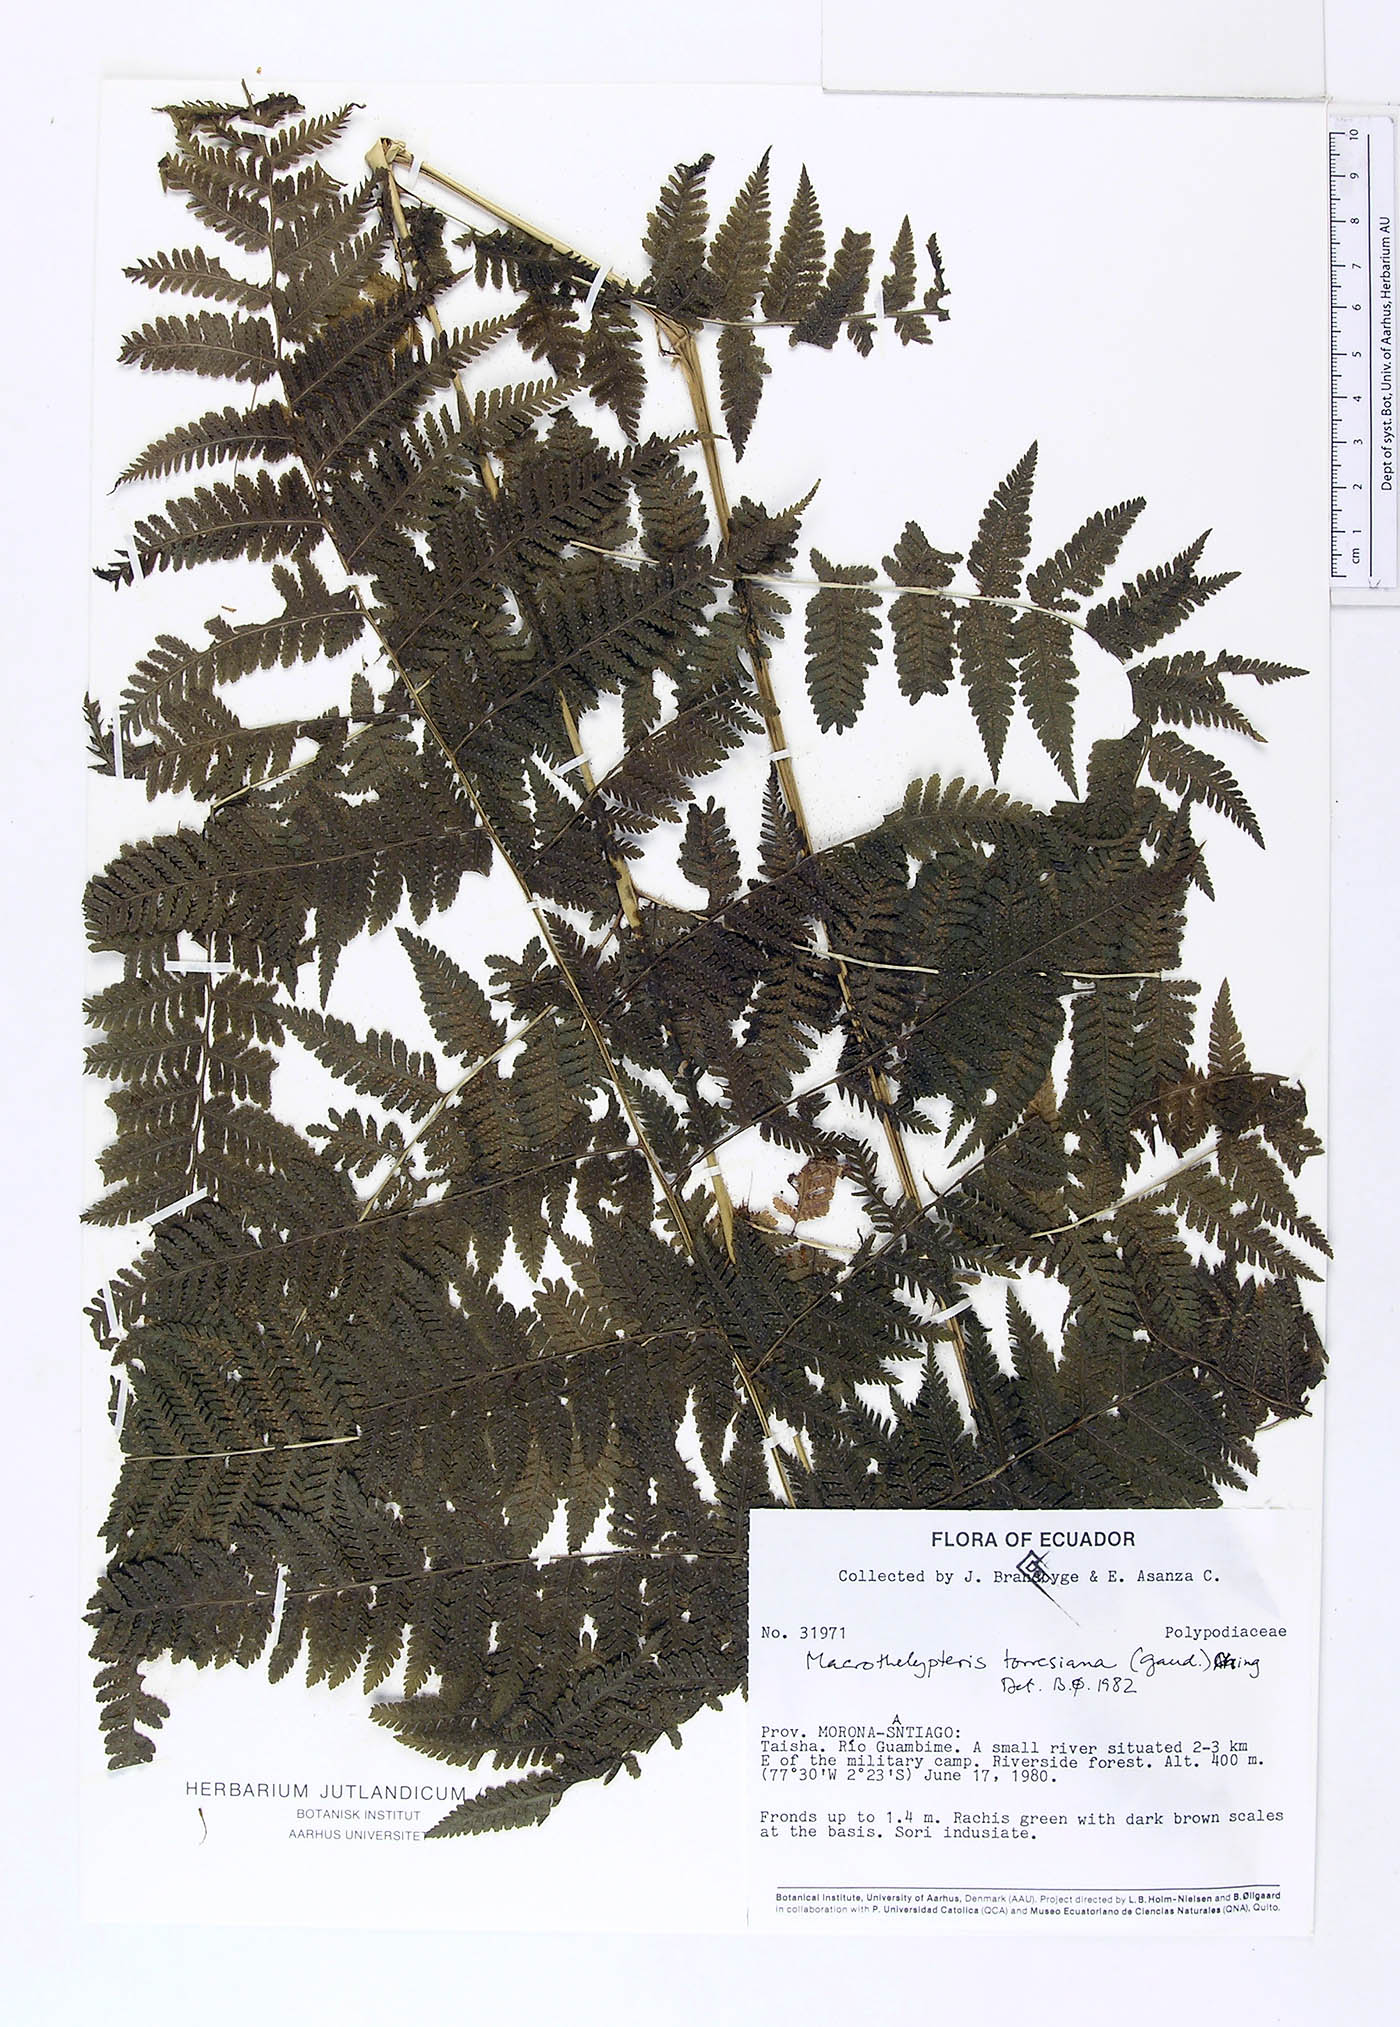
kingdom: Plantae
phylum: Tracheophyta
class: Polypodiopsida
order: Polypodiales
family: Thelypteridaceae
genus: Macrothelypteris
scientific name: Macrothelypteris torresiana
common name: Swordfern
